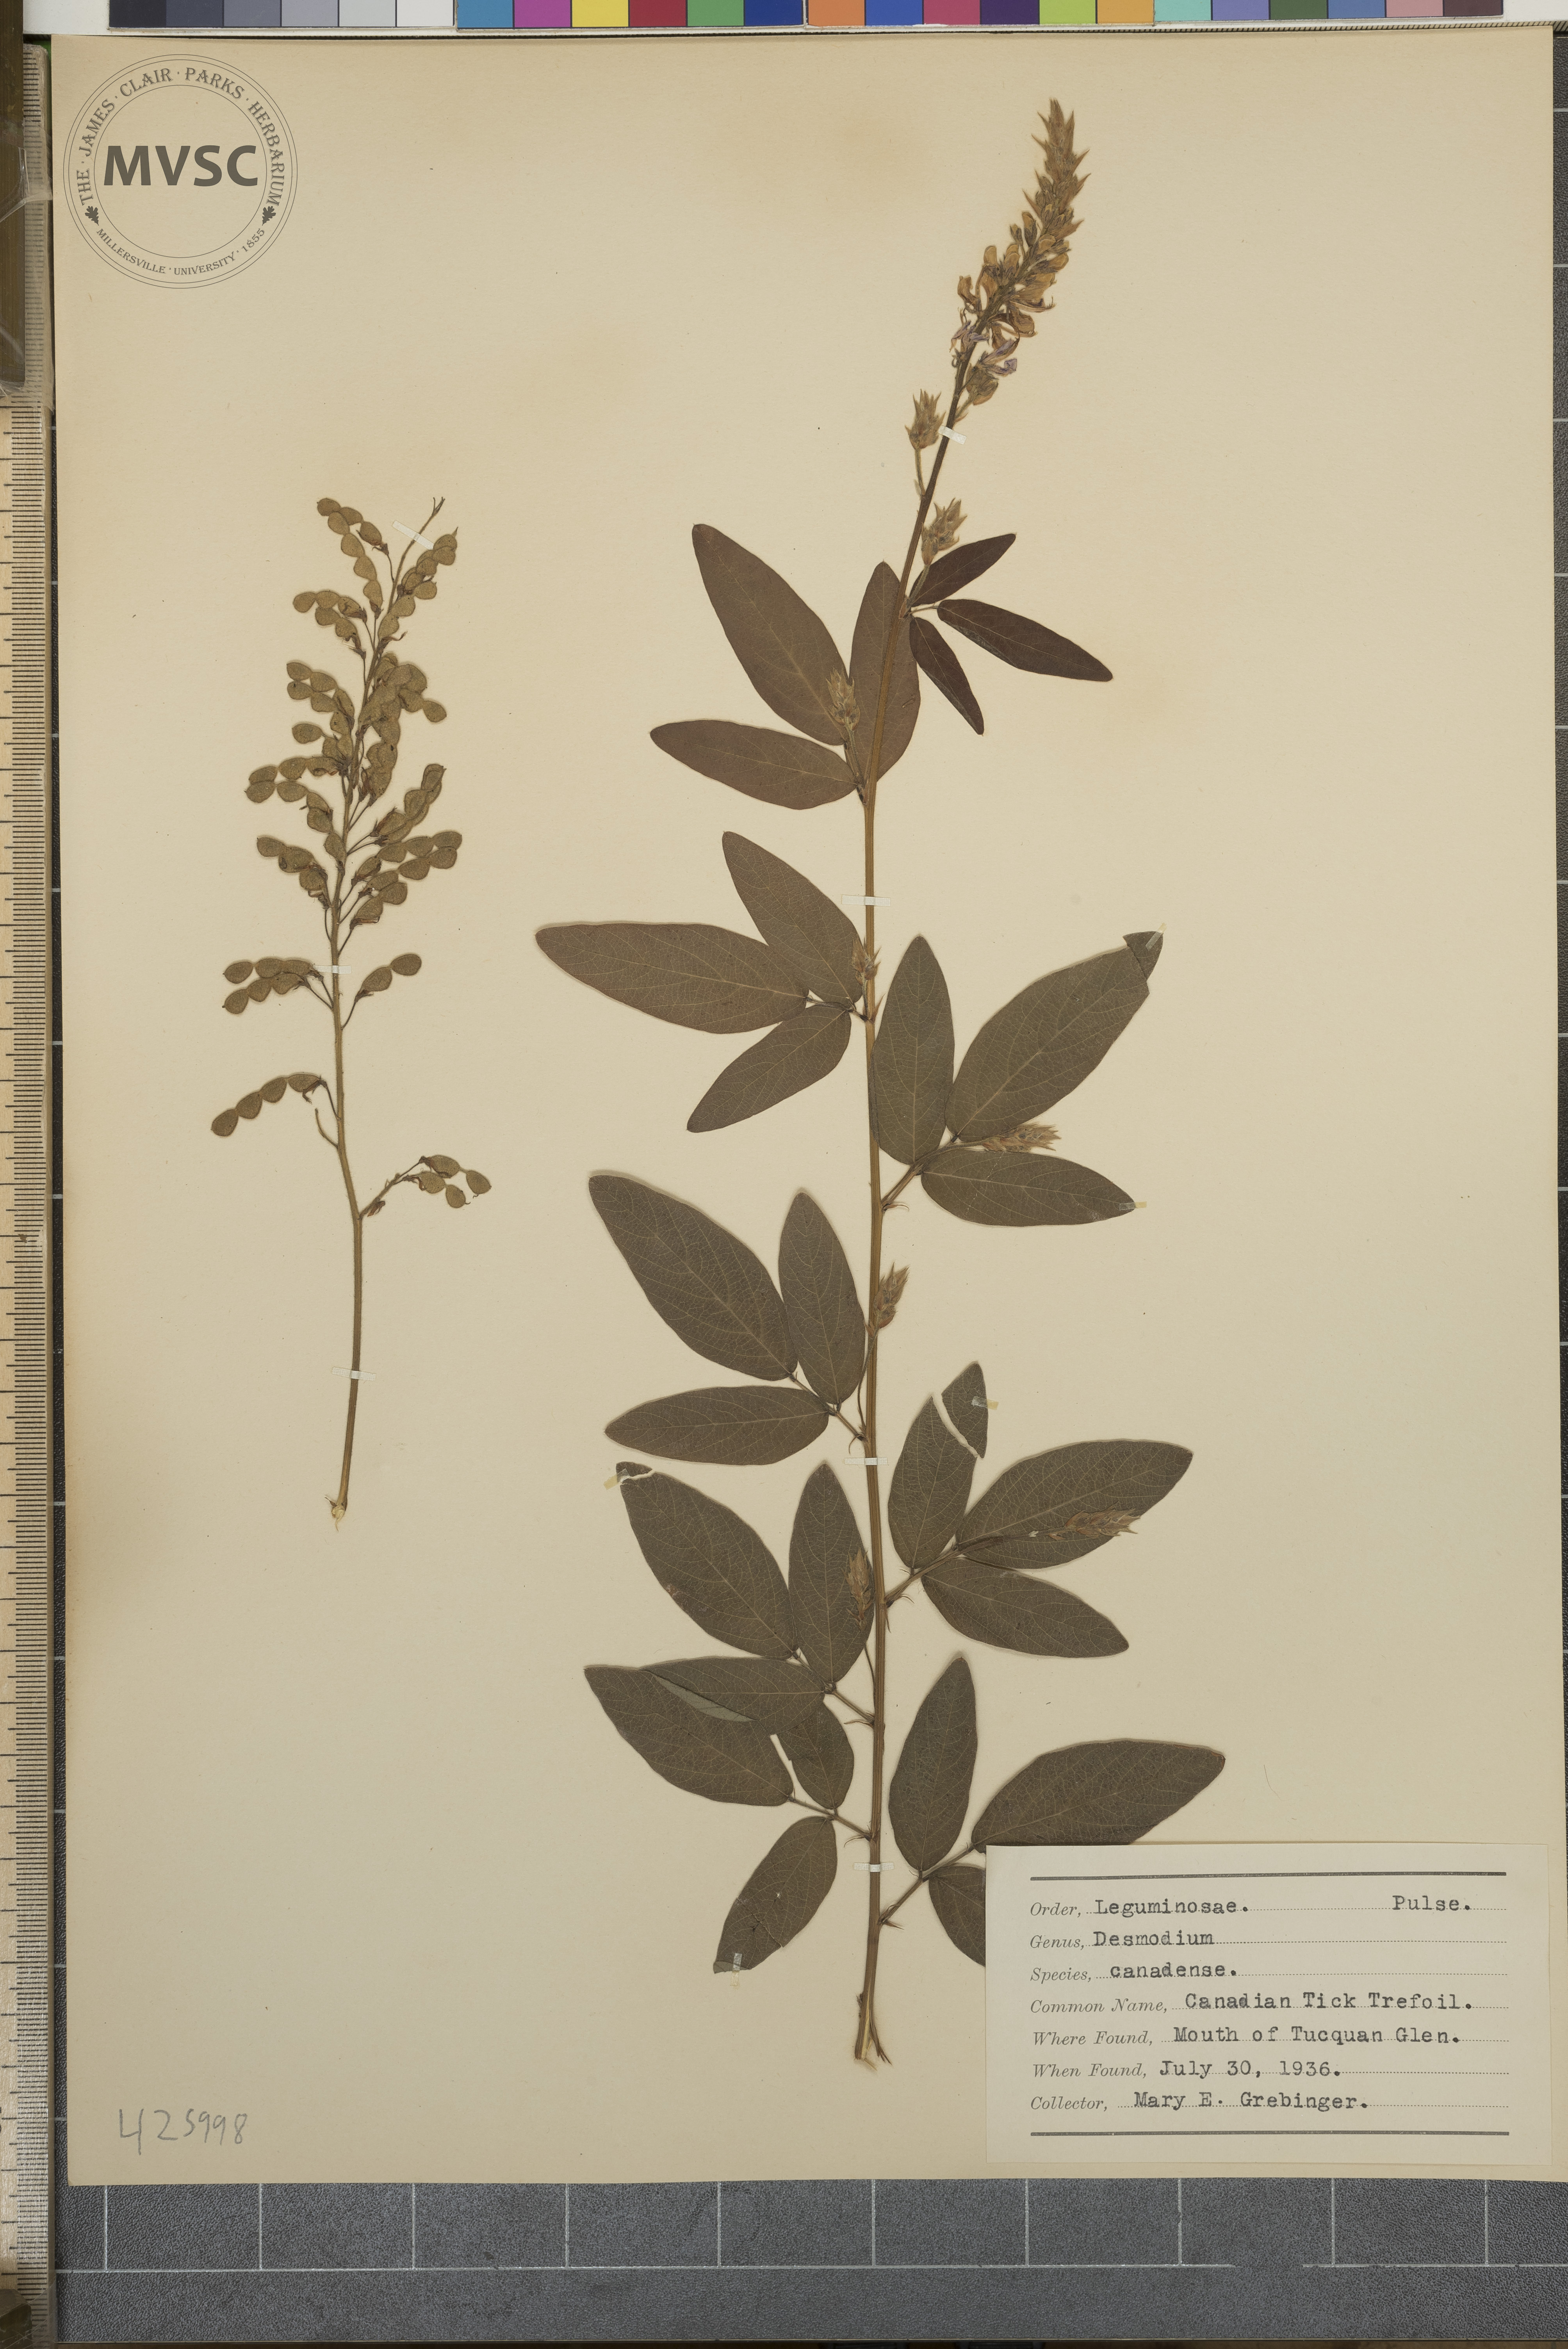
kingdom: Plantae
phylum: Tracheophyta
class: Magnoliopsida
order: Fabales
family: Fabaceae
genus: Desmodium
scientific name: Desmodium canadense
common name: Canadian tick trefoil
